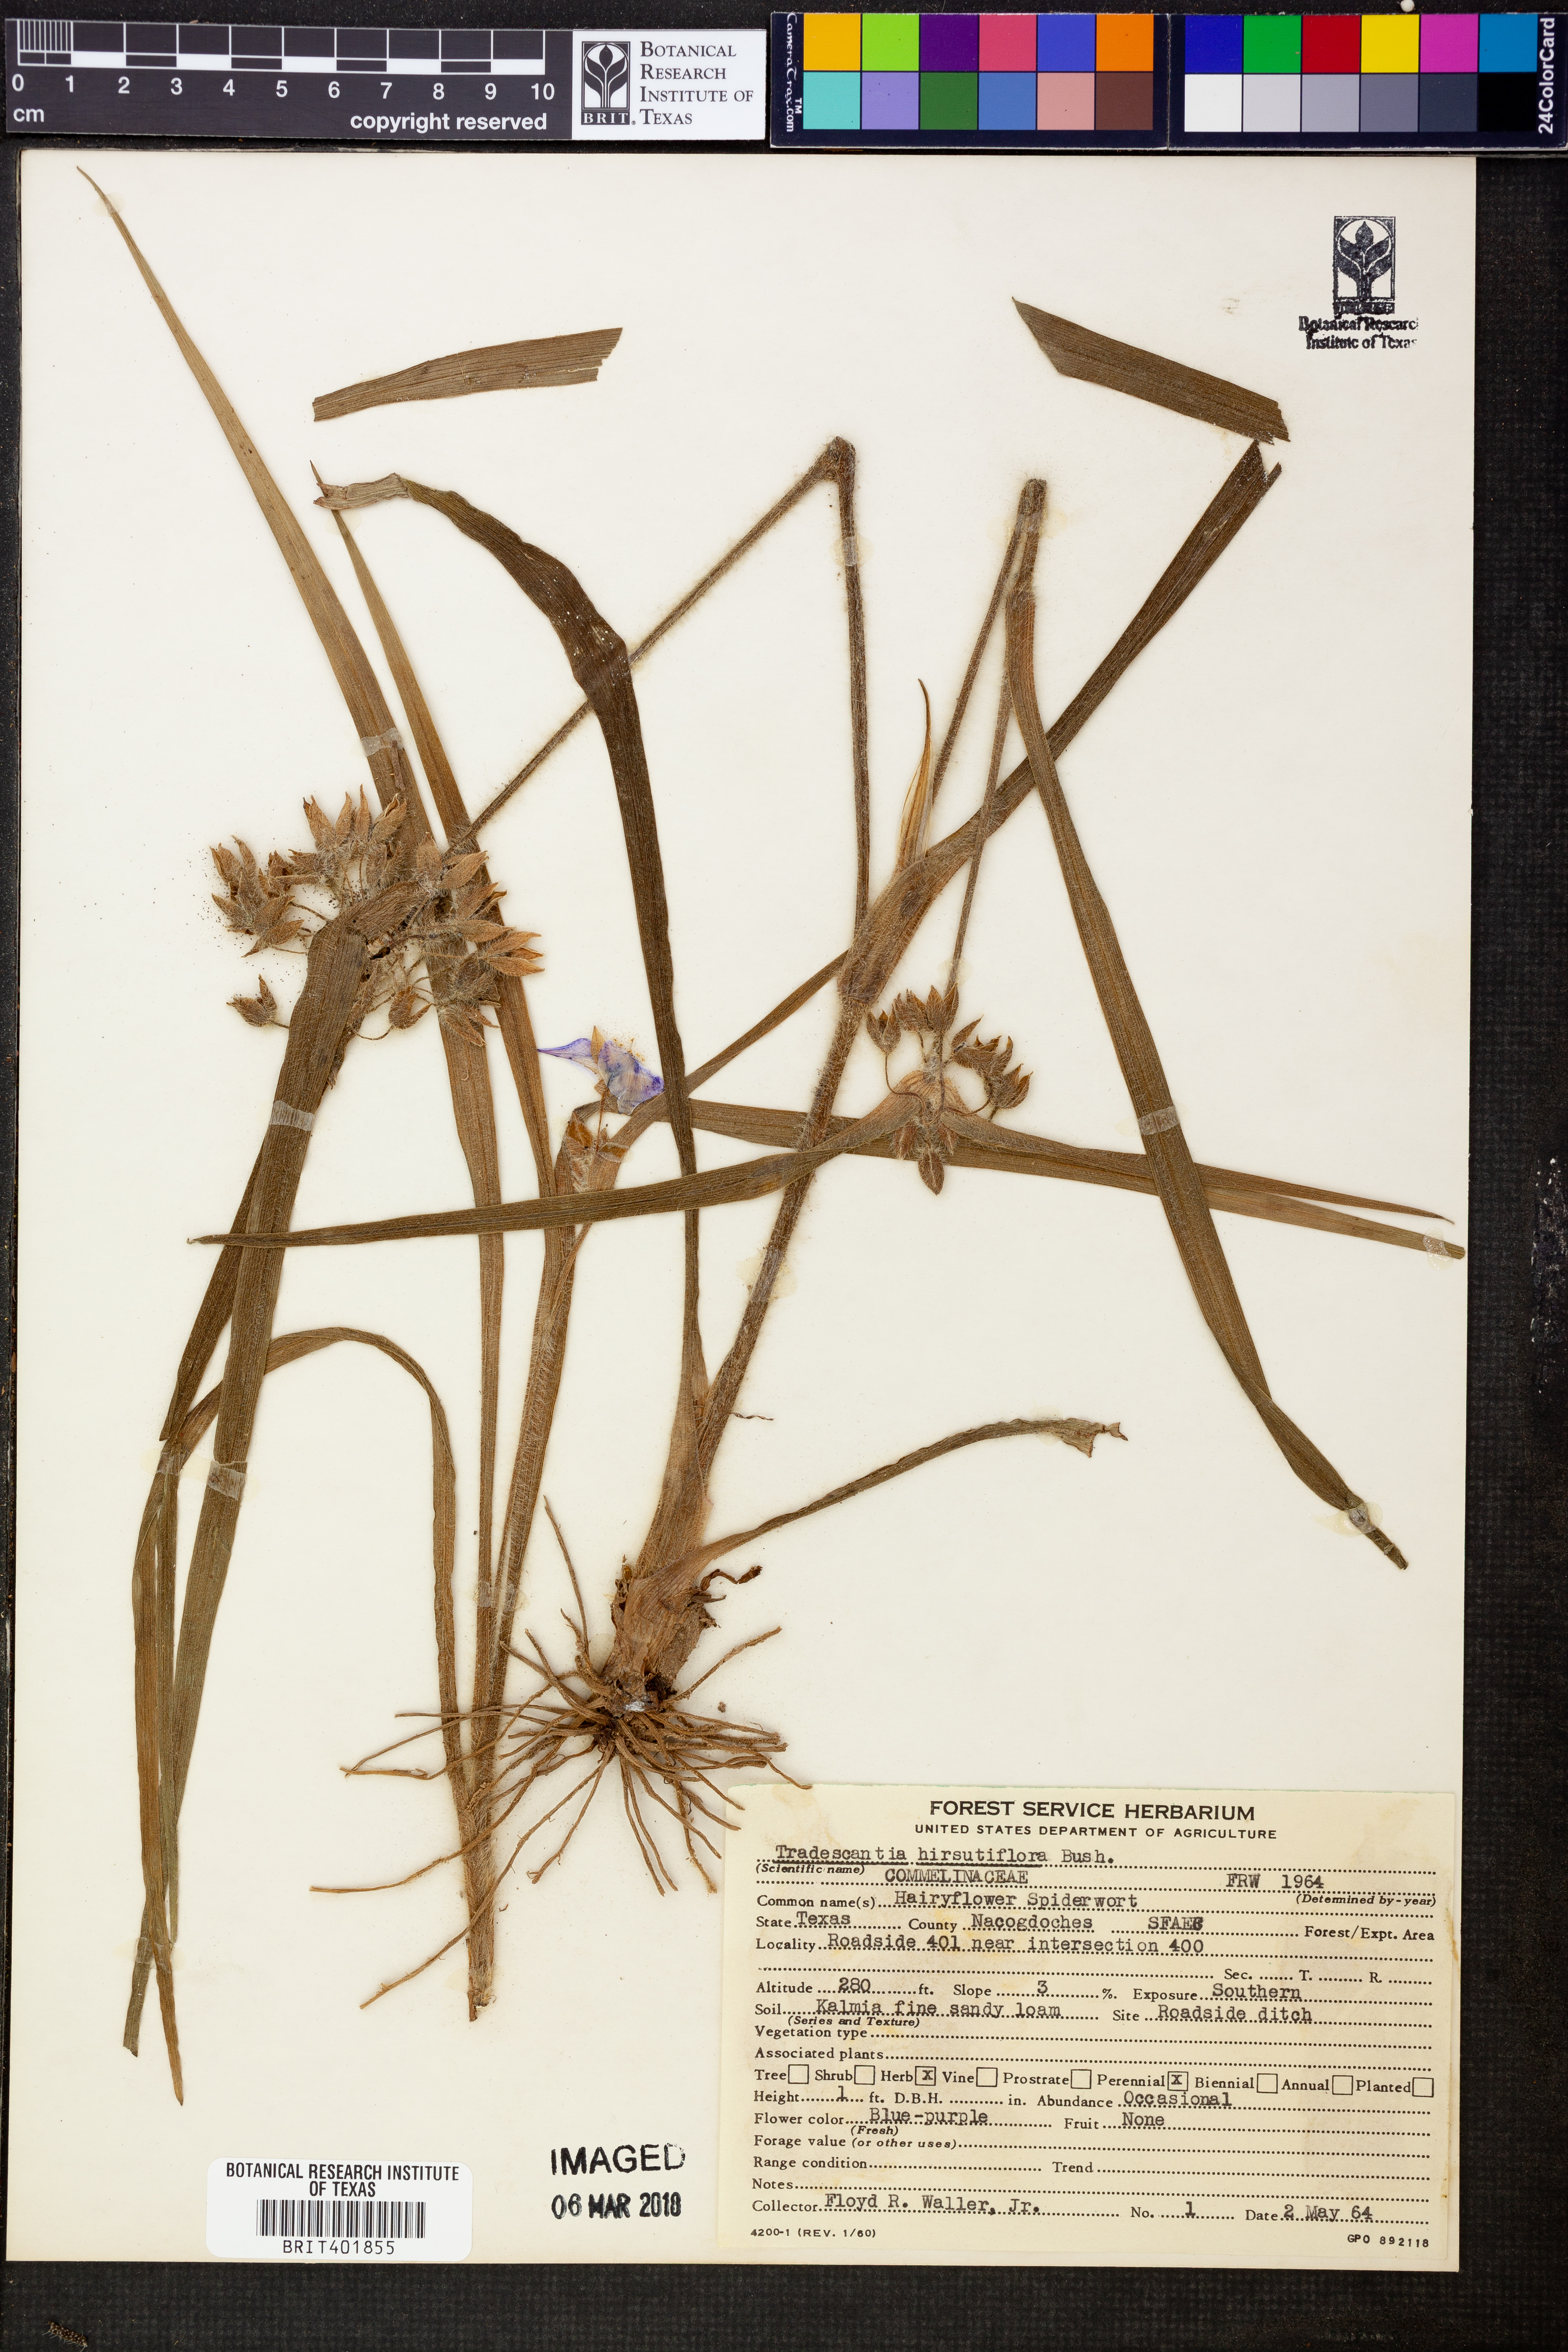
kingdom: Plantae
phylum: Tracheophyta
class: Liliopsida
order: Commelinales
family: Commelinaceae
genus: Tradescantia
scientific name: Tradescantia hirsutiflora
